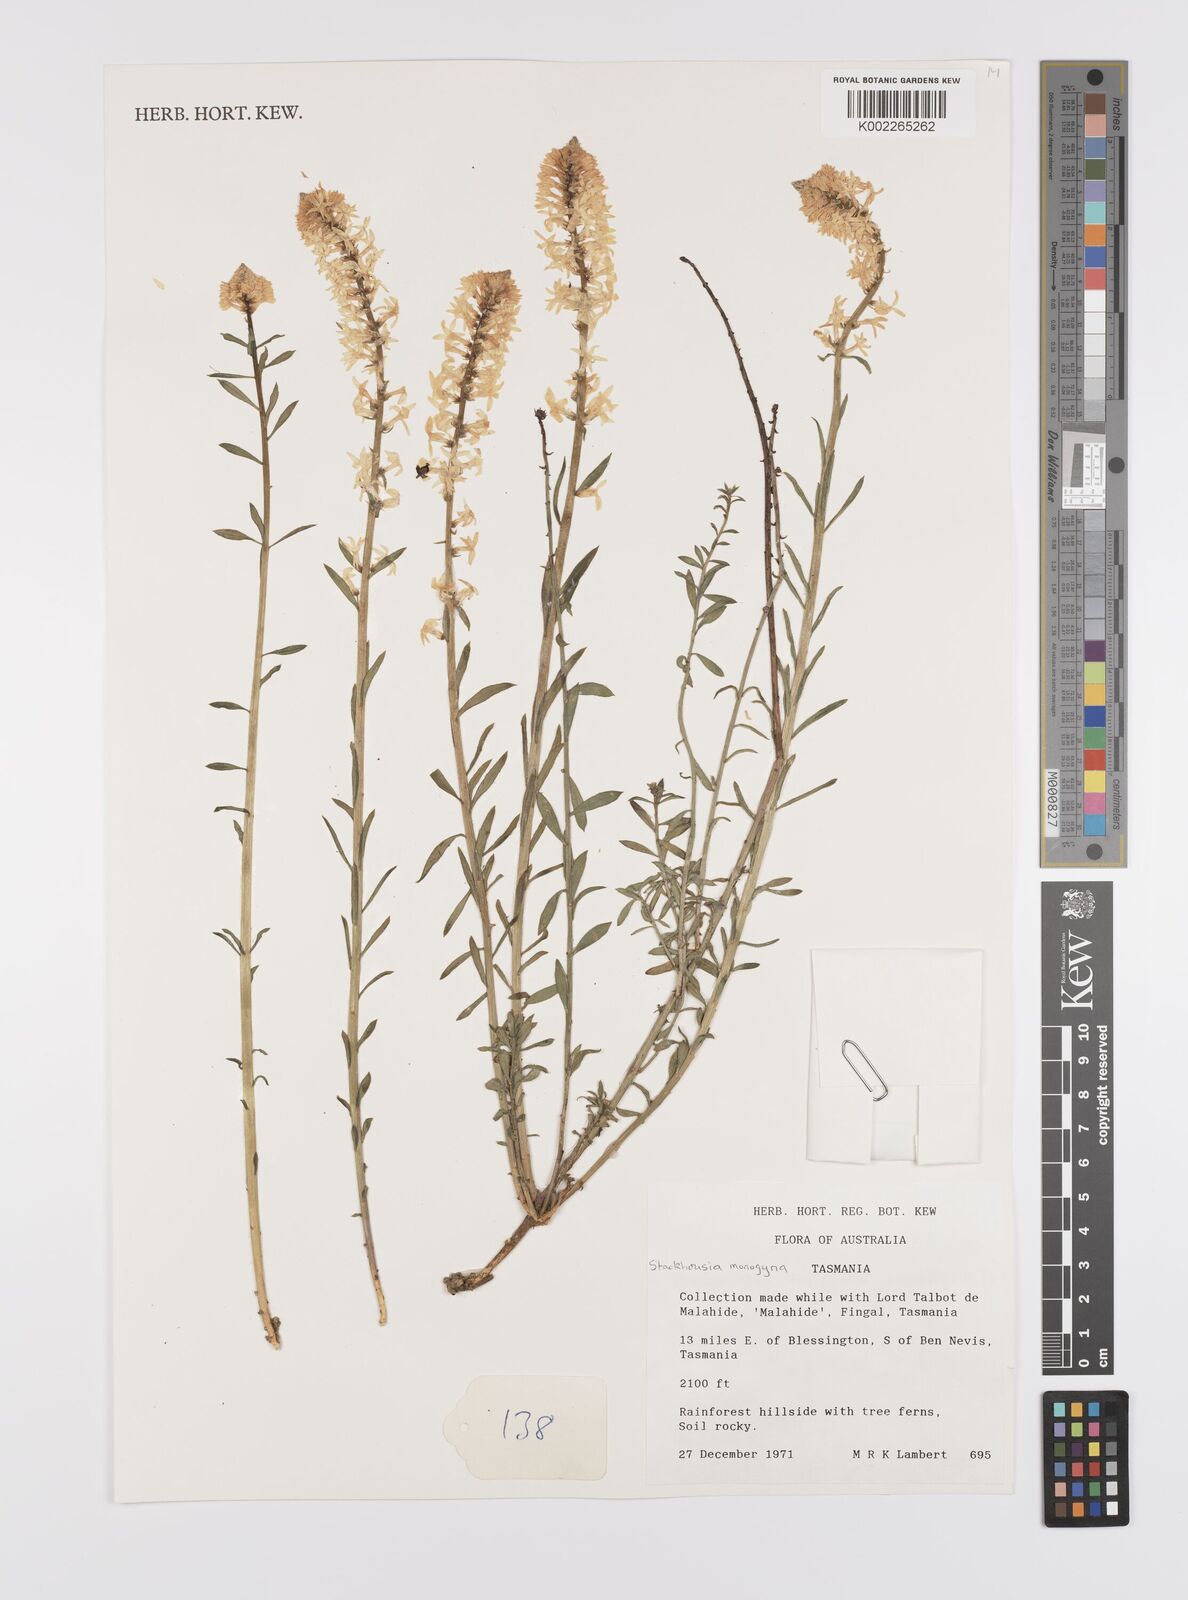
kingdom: Plantae
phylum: Tracheophyta
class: Magnoliopsida
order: Celastrales
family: Celastraceae
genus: Stackhousia
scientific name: Stackhousia monogyna
